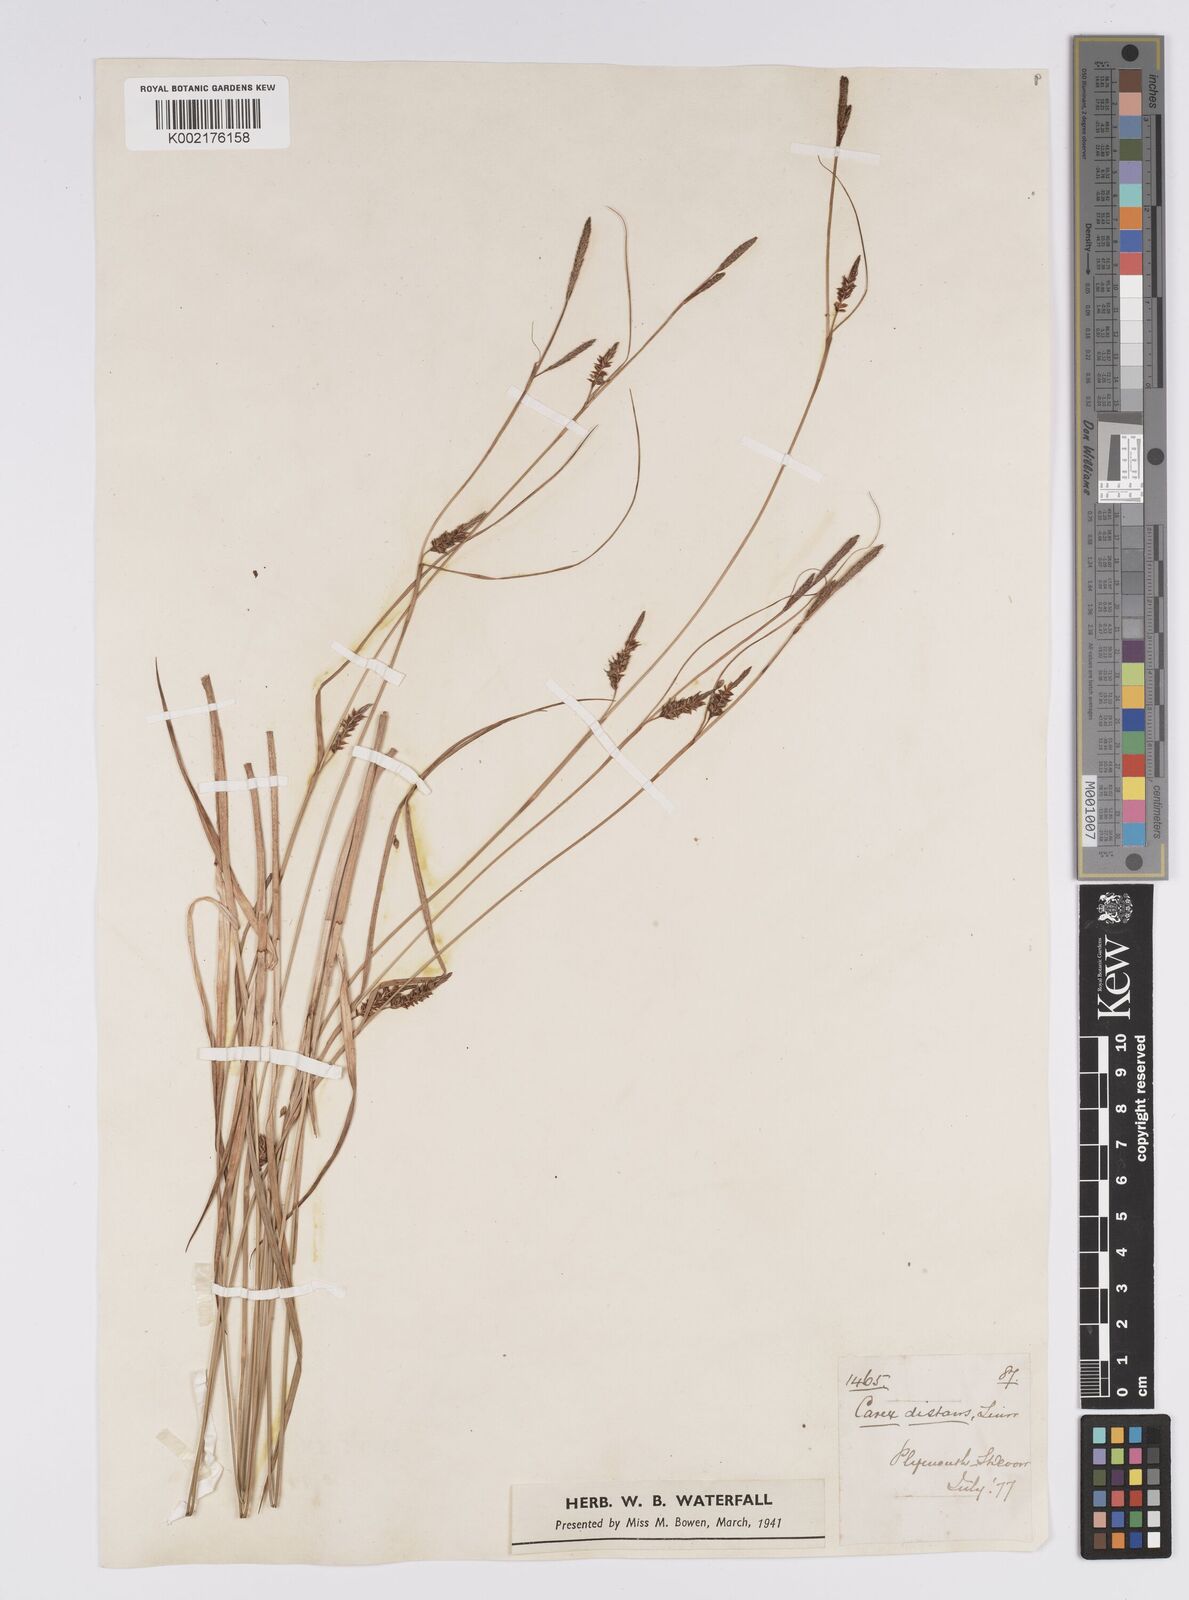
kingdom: Plantae
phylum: Tracheophyta
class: Liliopsida
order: Poales
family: Cyperaceae
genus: Carex
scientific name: Carex distans
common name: Distant sedge
